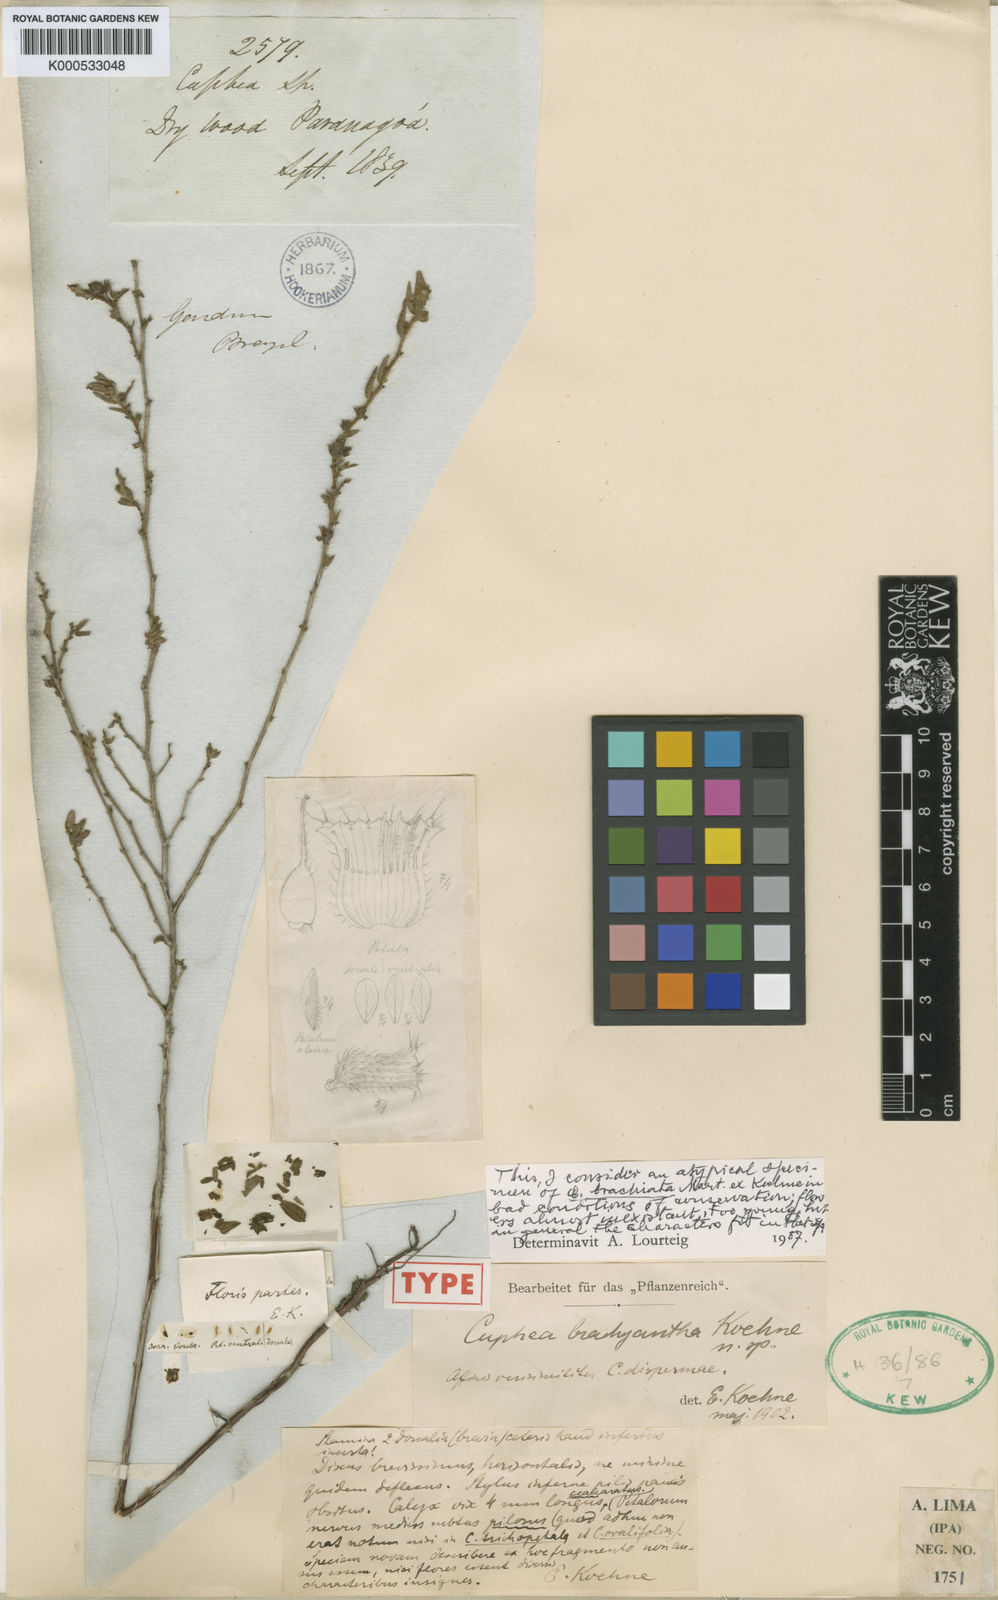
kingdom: Plantae
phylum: Tracheophyta
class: Magnoliopsida
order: Myrtales
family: Lythraceae
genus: Cuphea
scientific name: Cuphea disperma
